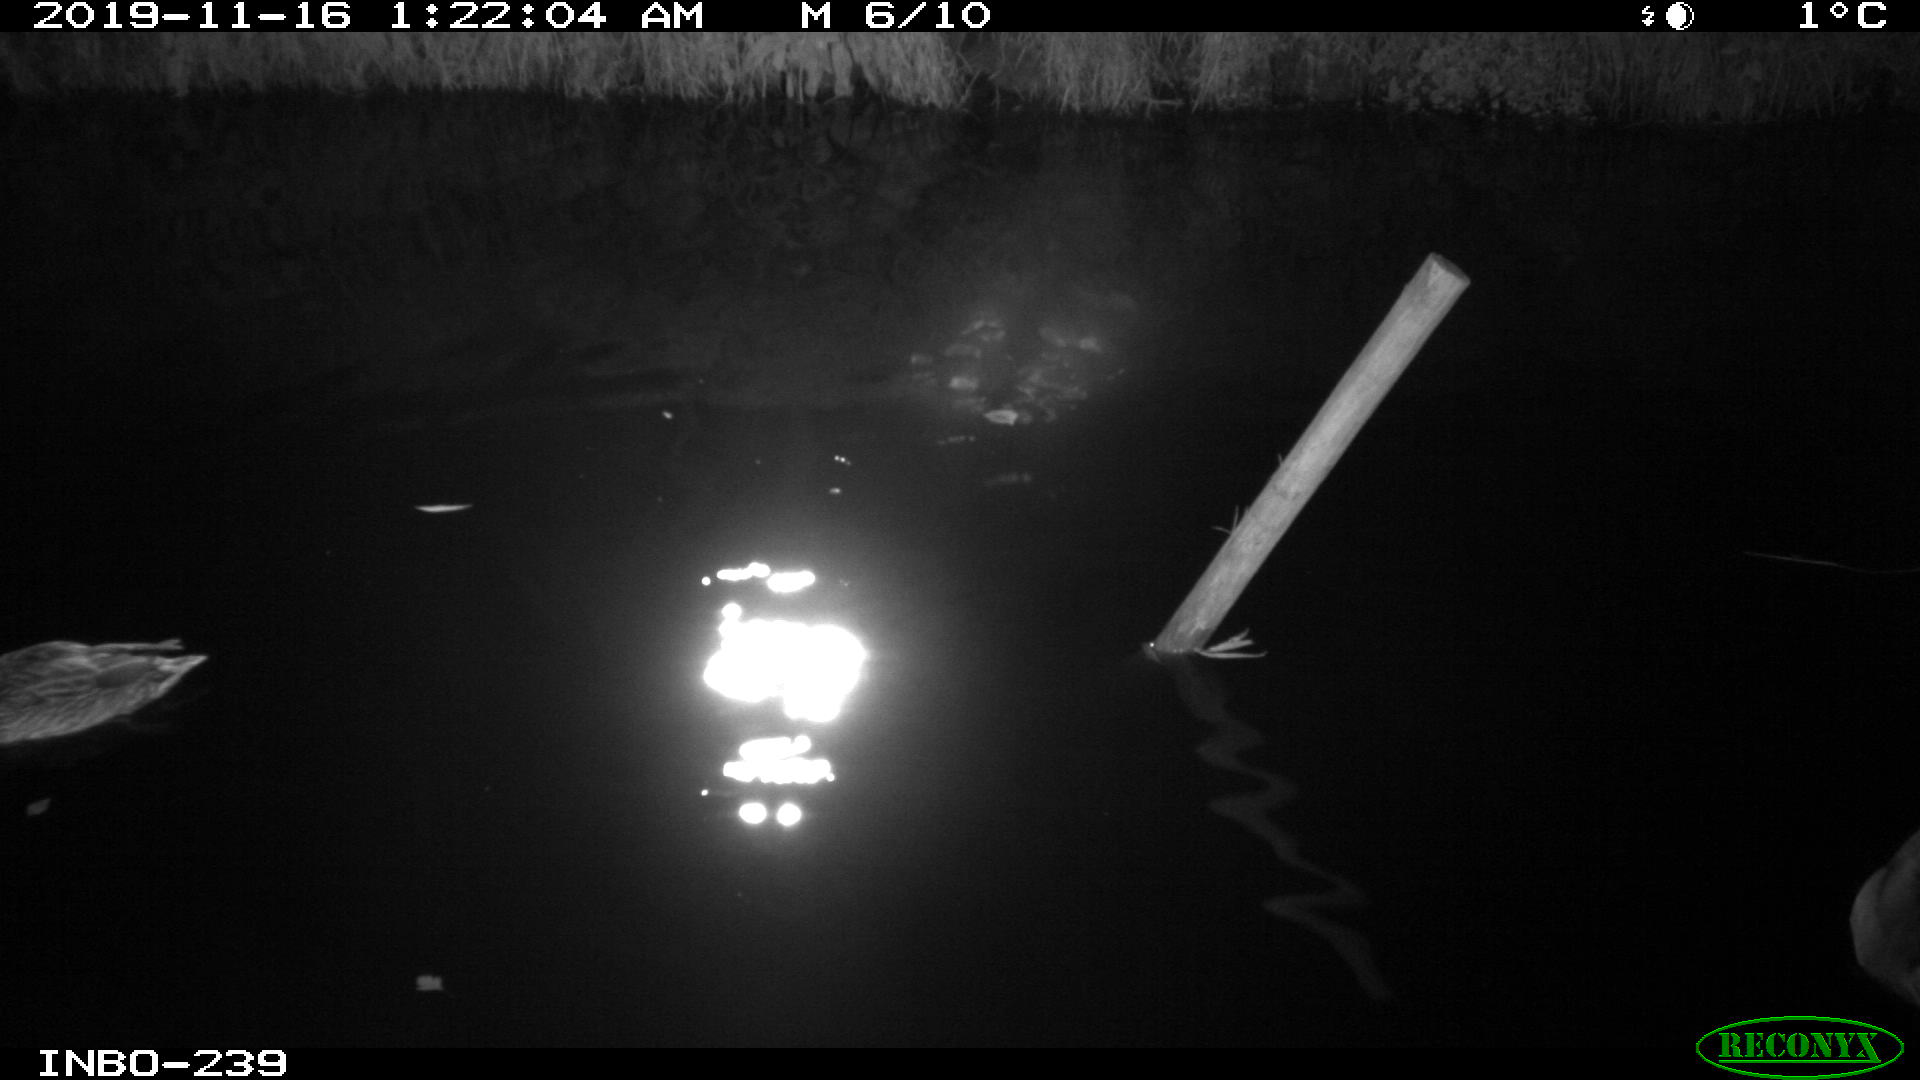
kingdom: Animalia
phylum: Chordata
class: Aves
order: Anseriformes
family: Anatidae
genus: Anas
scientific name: Anas platyrhynchos
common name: Mallard
